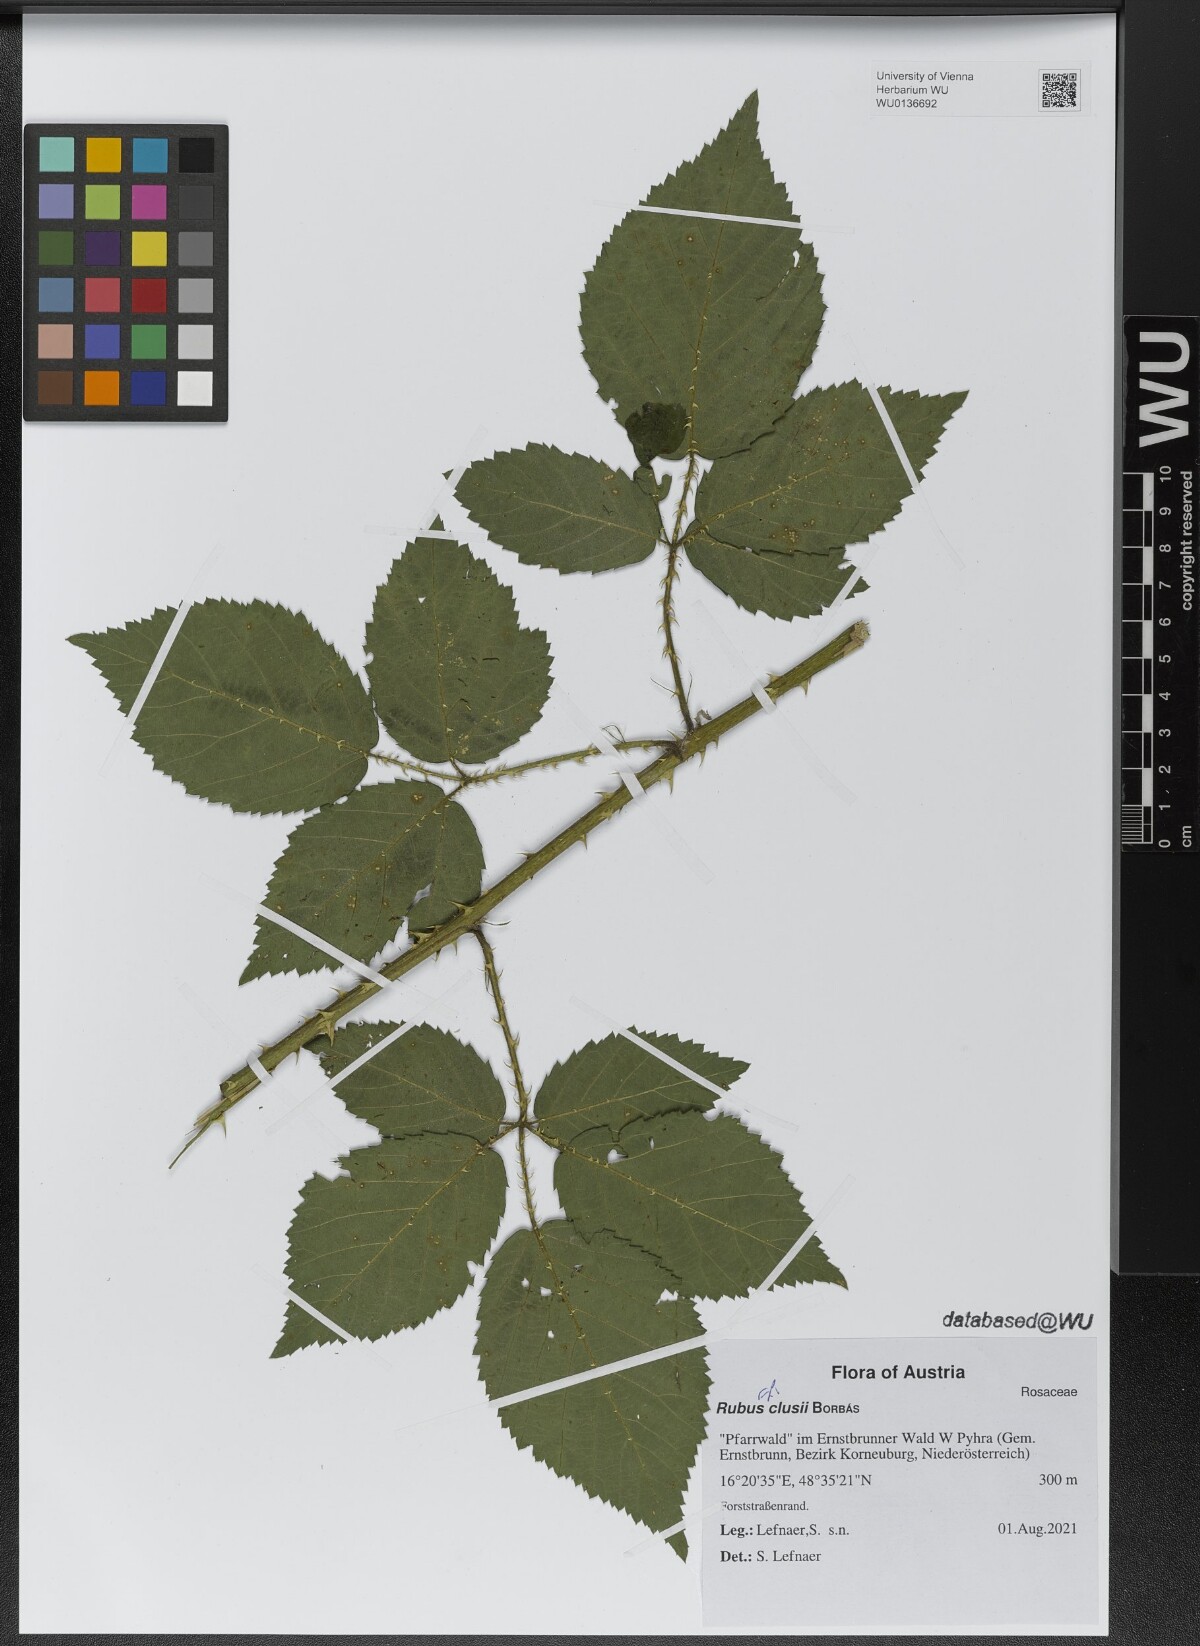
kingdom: Plantae
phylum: Tracheophyta
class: Magnoliopsida
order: Rosales
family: Rosaceae
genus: Rubus
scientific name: Rubus clusii
